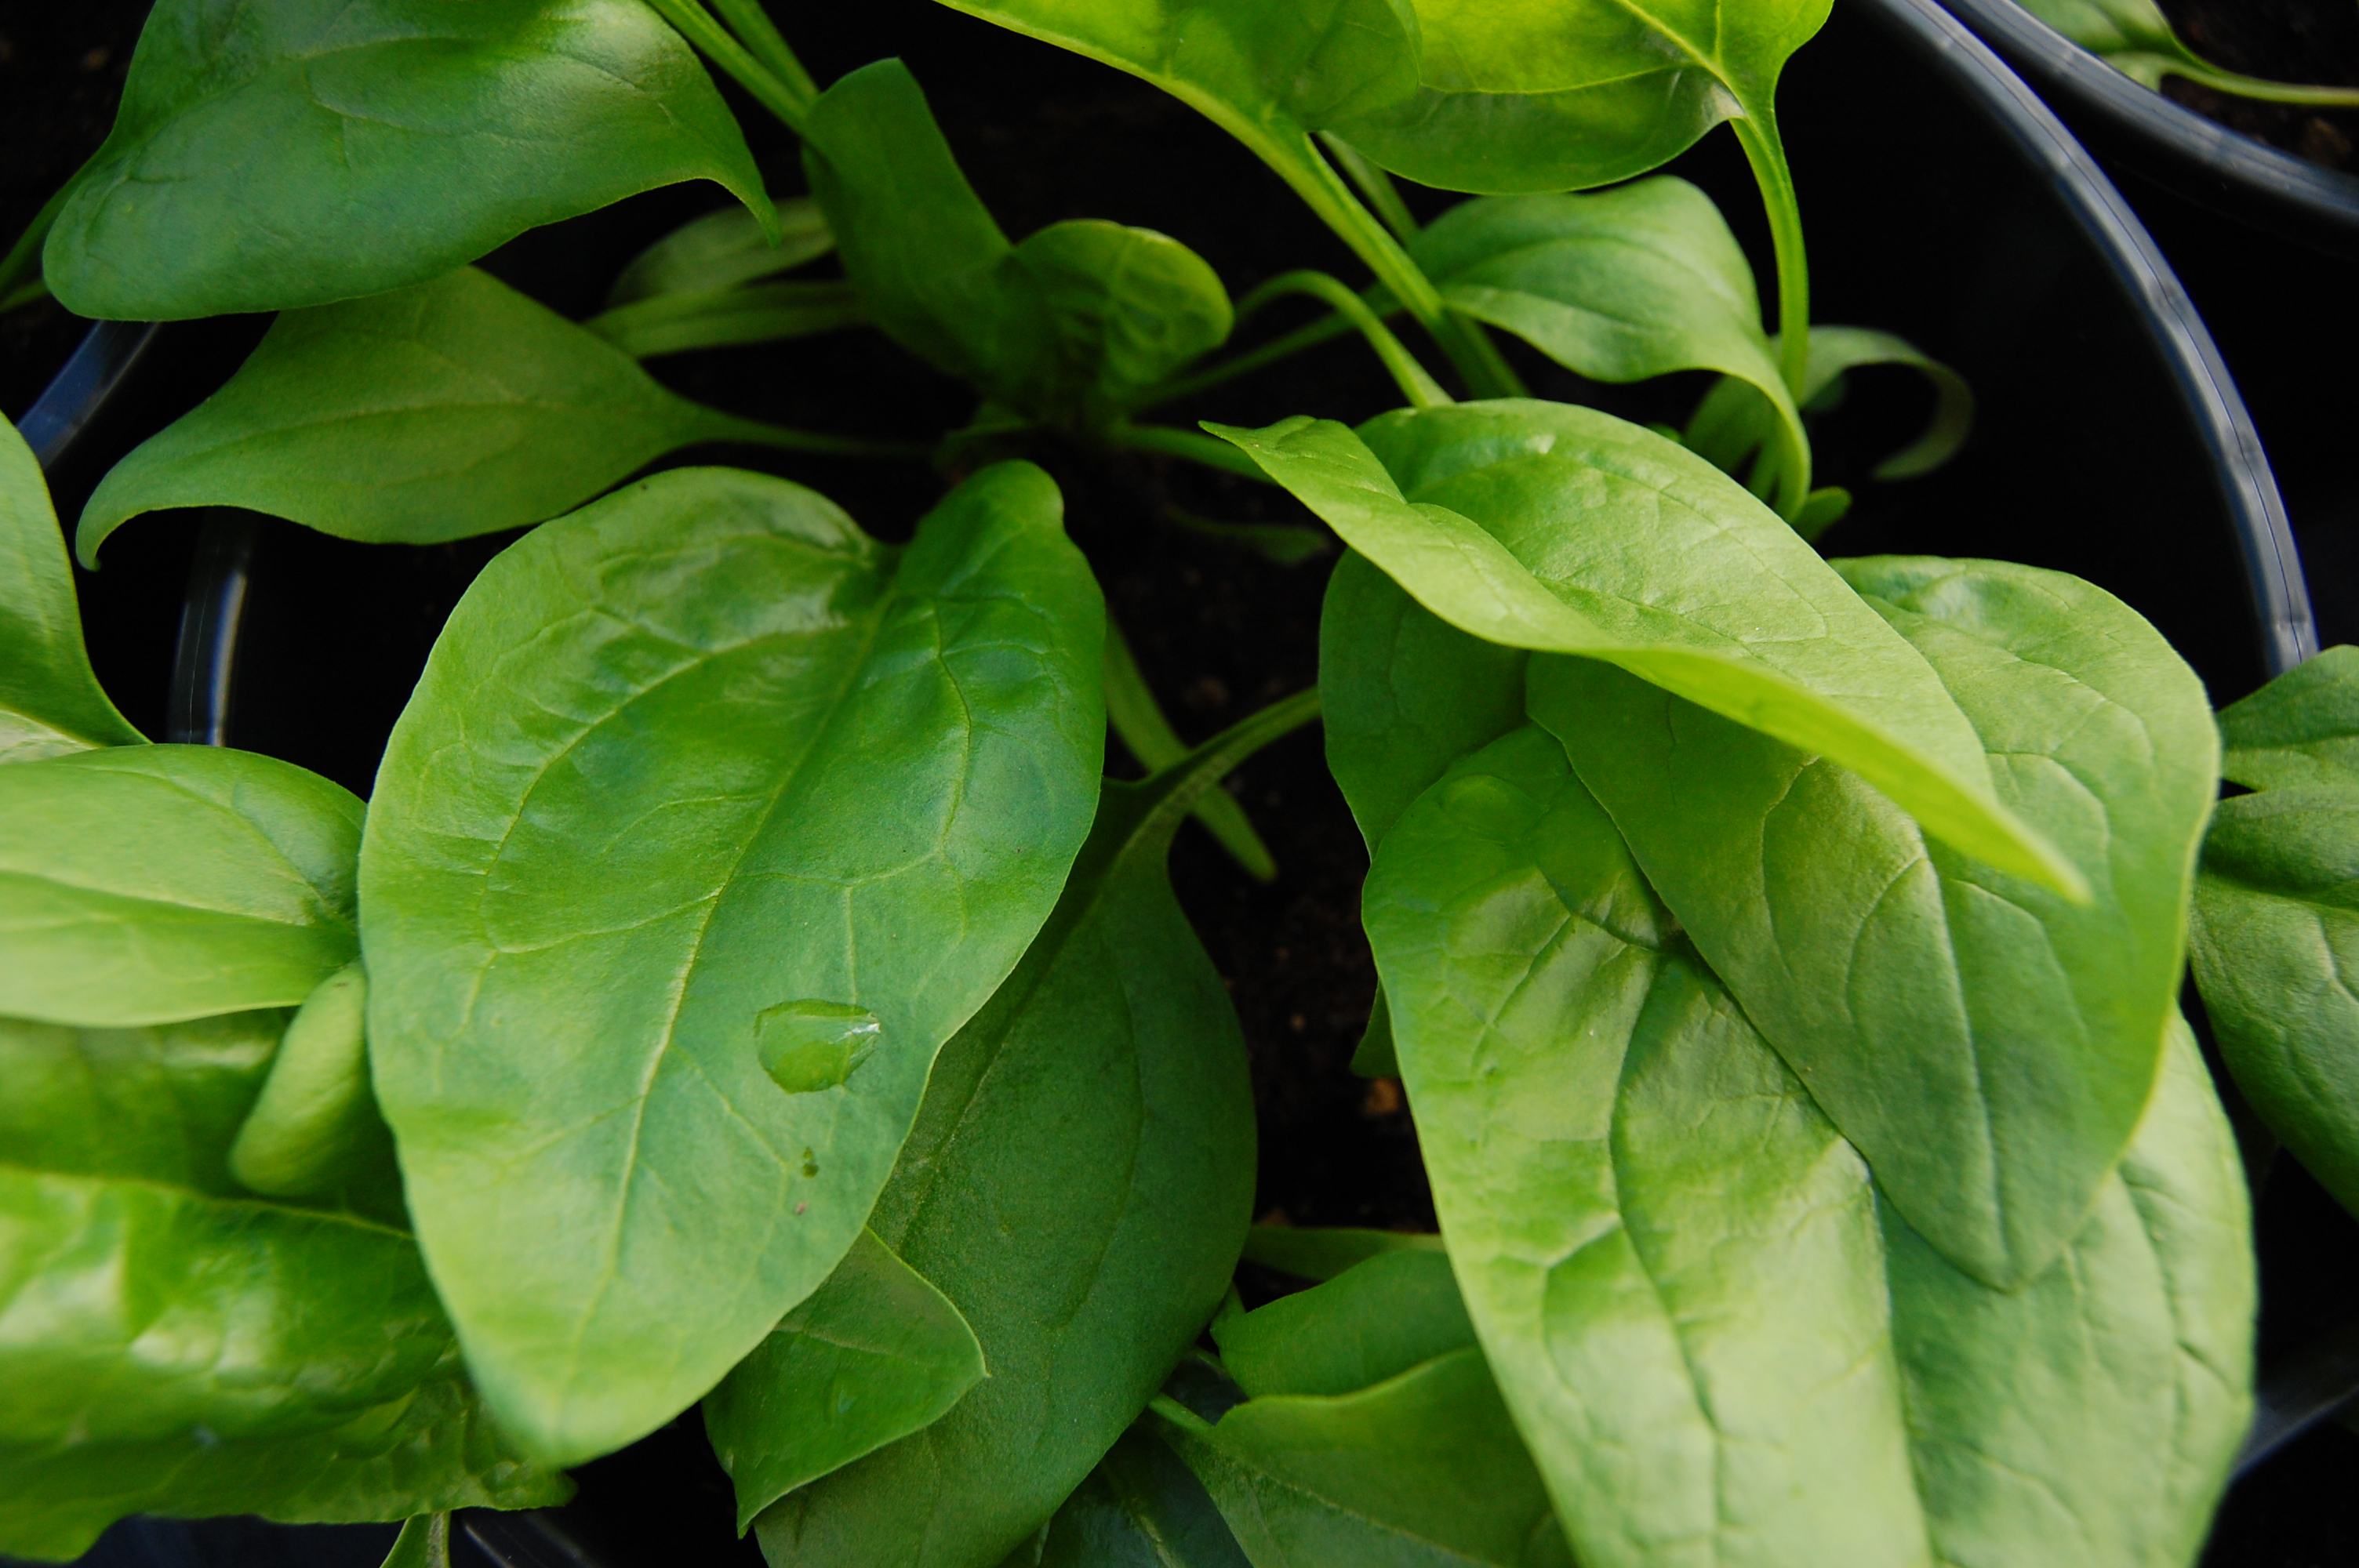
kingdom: Plantae
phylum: Tracheophyta
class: Magnoliopsida
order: Caryophyllales
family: Amaranthaceae
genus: Spinacia
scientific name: Spinacia oleracea
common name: Spinach
